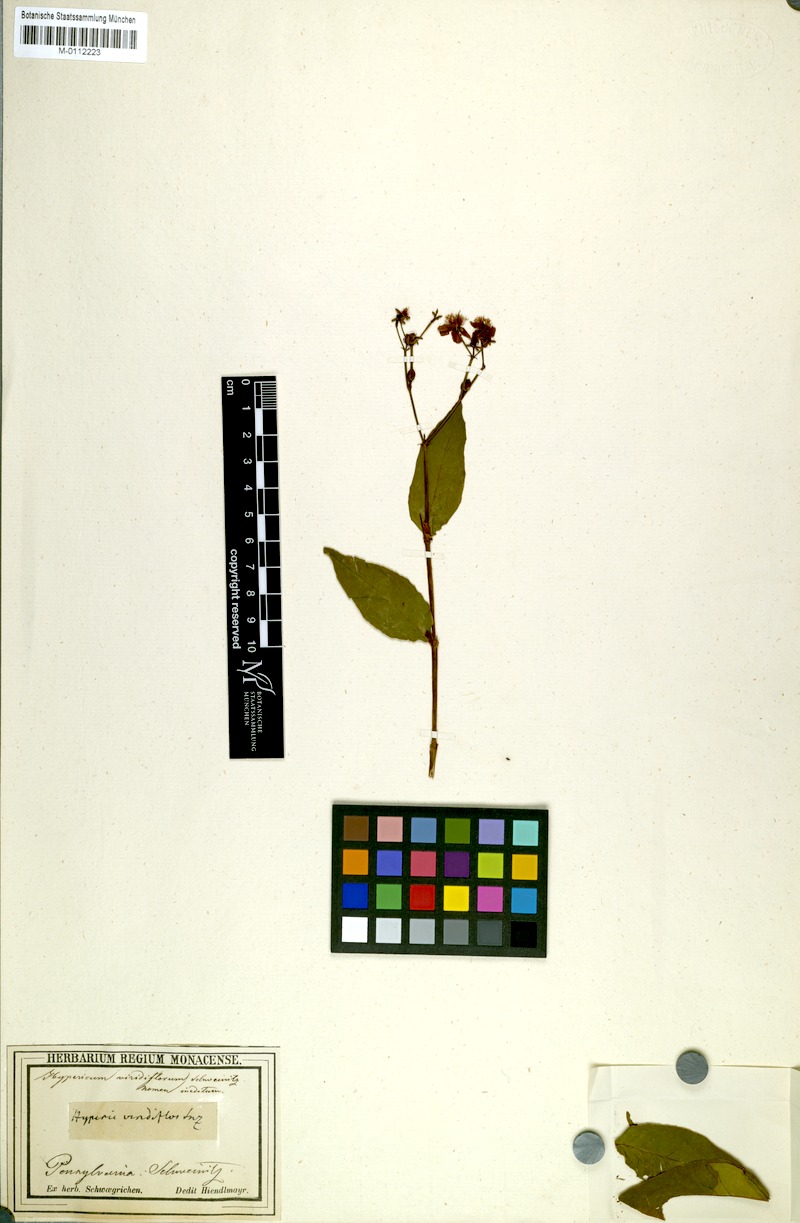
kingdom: Plantae
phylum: Tracheophyta
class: Magnoliopsida
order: Malpighiales
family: Hypericaceae
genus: Hypericum
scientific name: Hypericum
